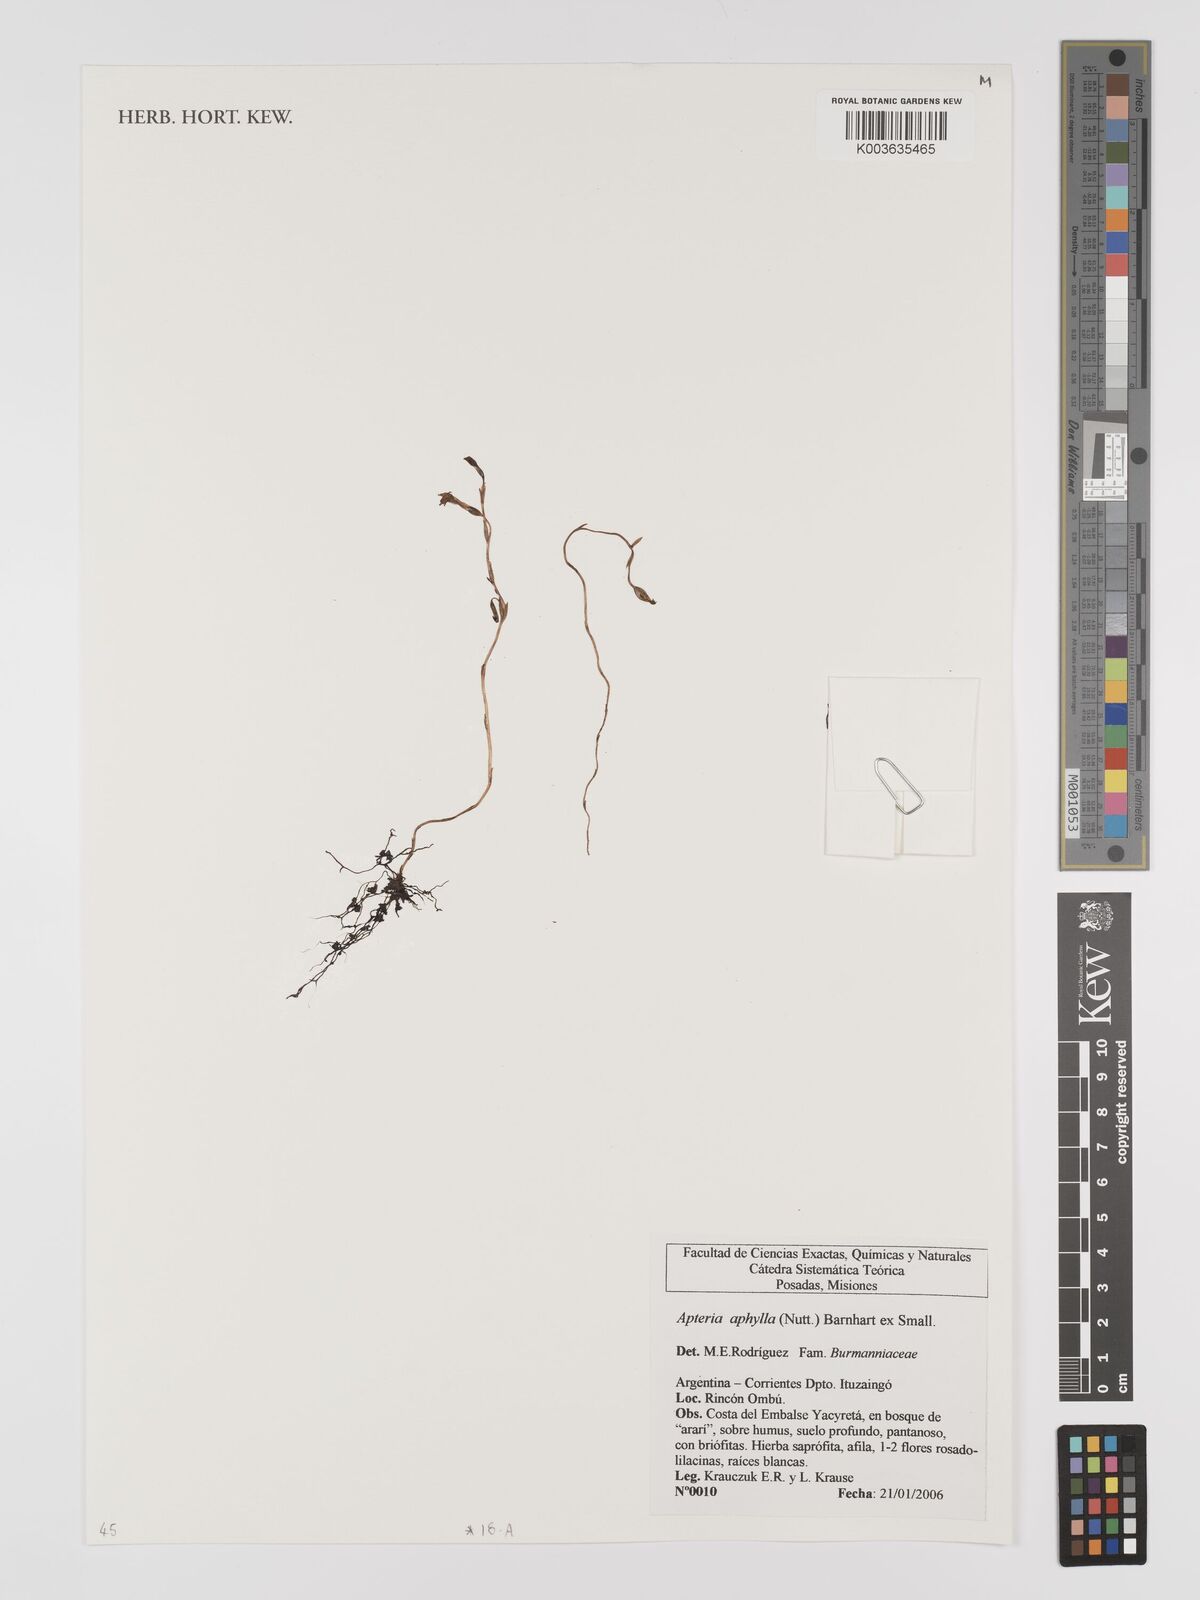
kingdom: Plantae
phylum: Tracheophyta
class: Liliopsida
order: Dioscoreales
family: Burmanniaceae
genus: Apteria
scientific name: Apteria aphylla
